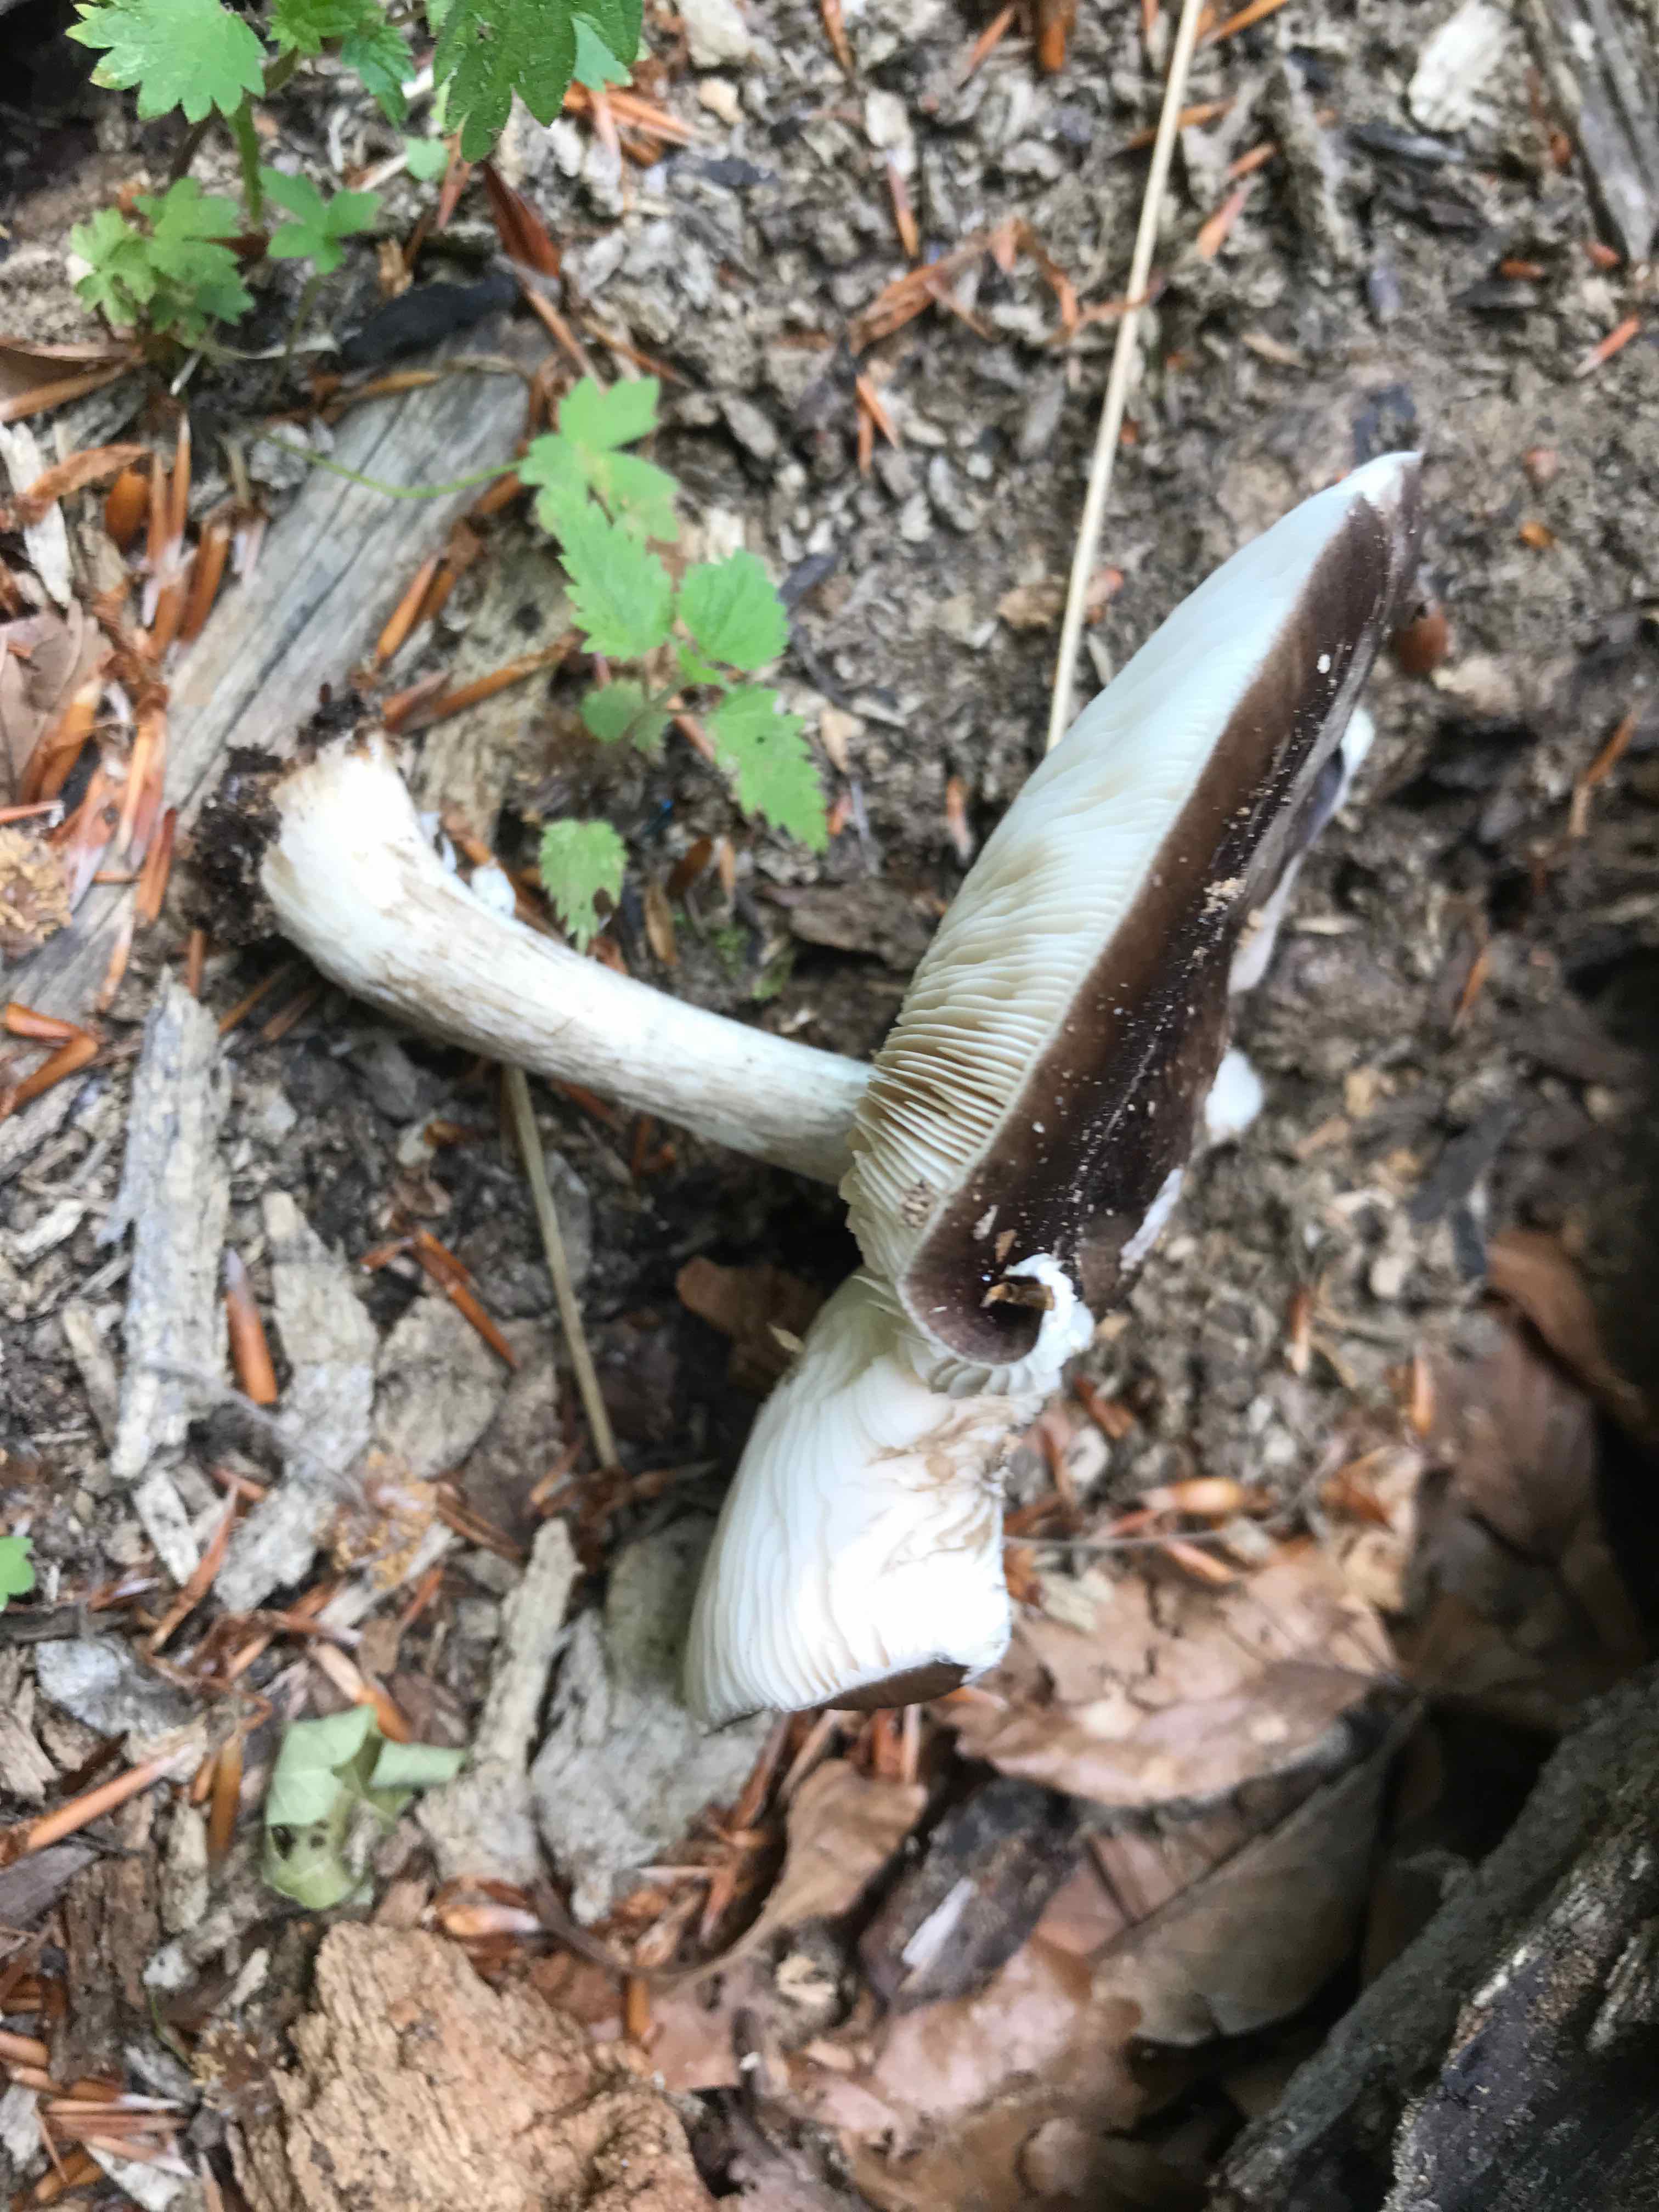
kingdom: Fungi
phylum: Basidiomycota
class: Agaricomycetes
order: Agaricales
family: Pluteaceae
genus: Pluteus
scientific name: Pluteus cervinus
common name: sodfarvet skærmhat
